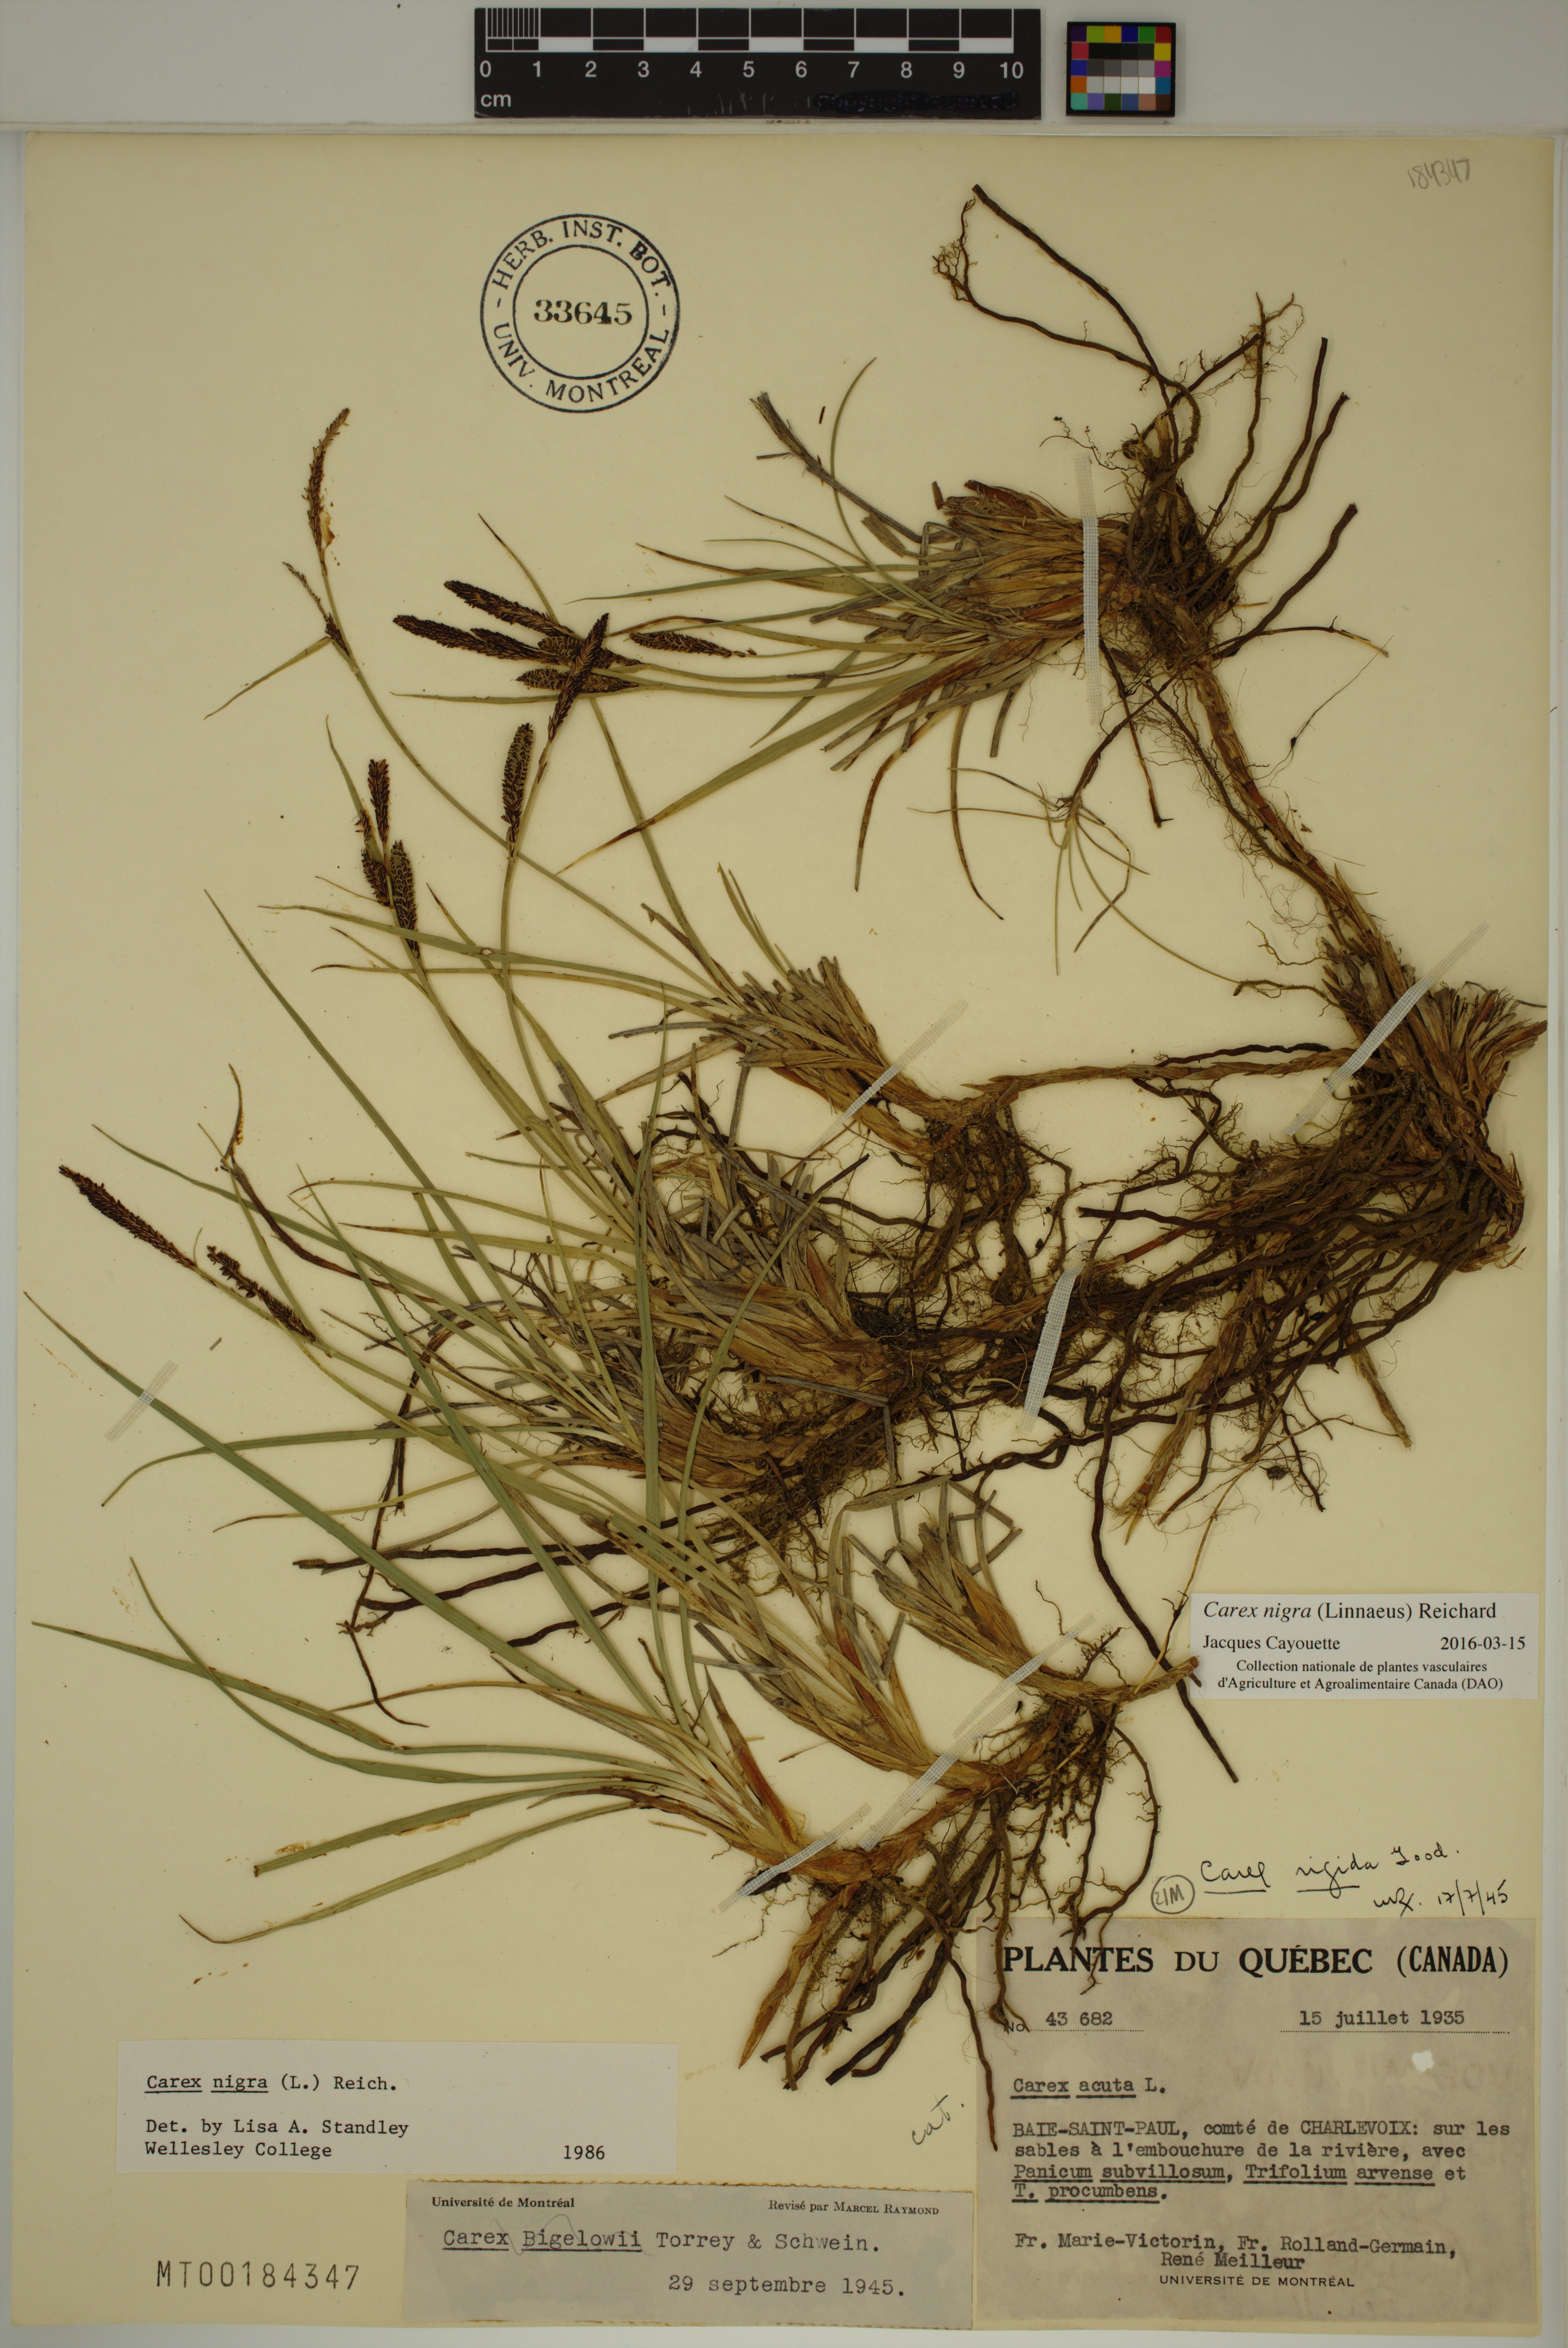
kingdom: Plantae
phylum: Tracheophyta
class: Liliopsida
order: Poales
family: Cyperaceae
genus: Carex
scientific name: Carex nigra
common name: Common sedge
